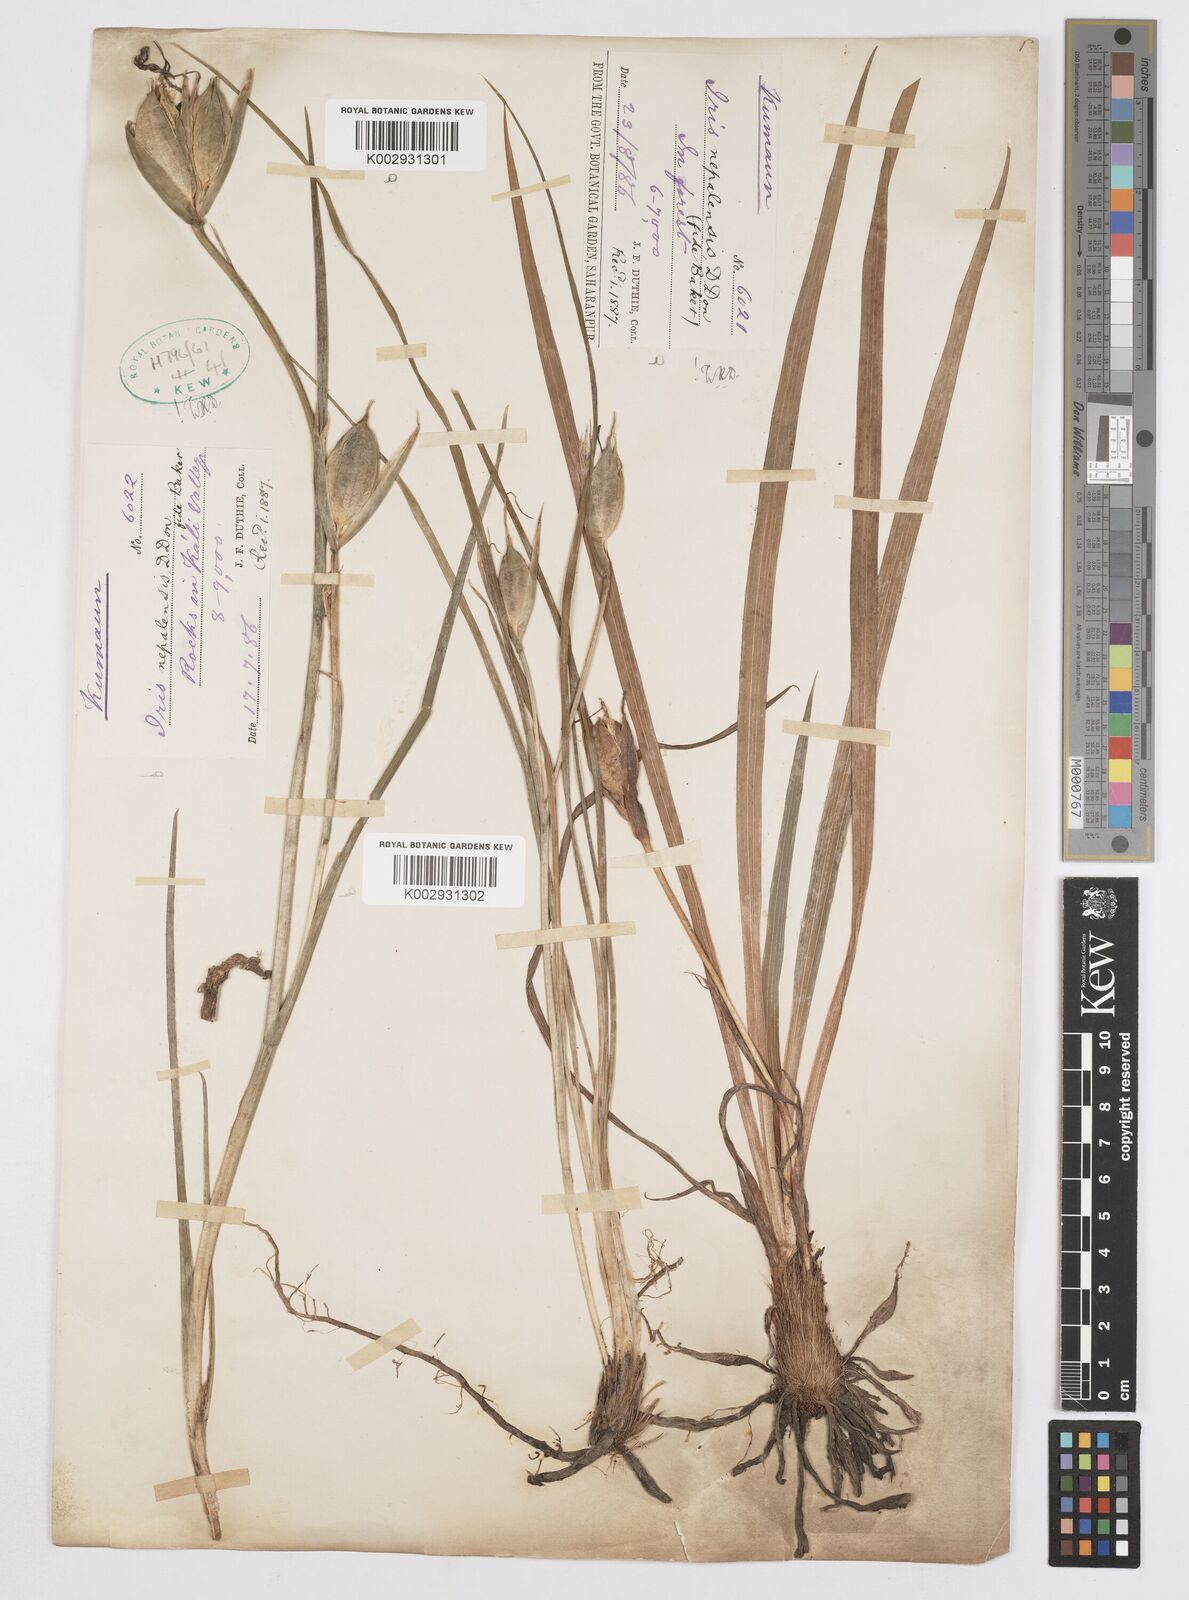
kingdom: Plantae
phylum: Tracheophyta
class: Liliopsida
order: Asparagales
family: Iridaceae
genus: Iris
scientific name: Iris decora
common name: Nepal iris
